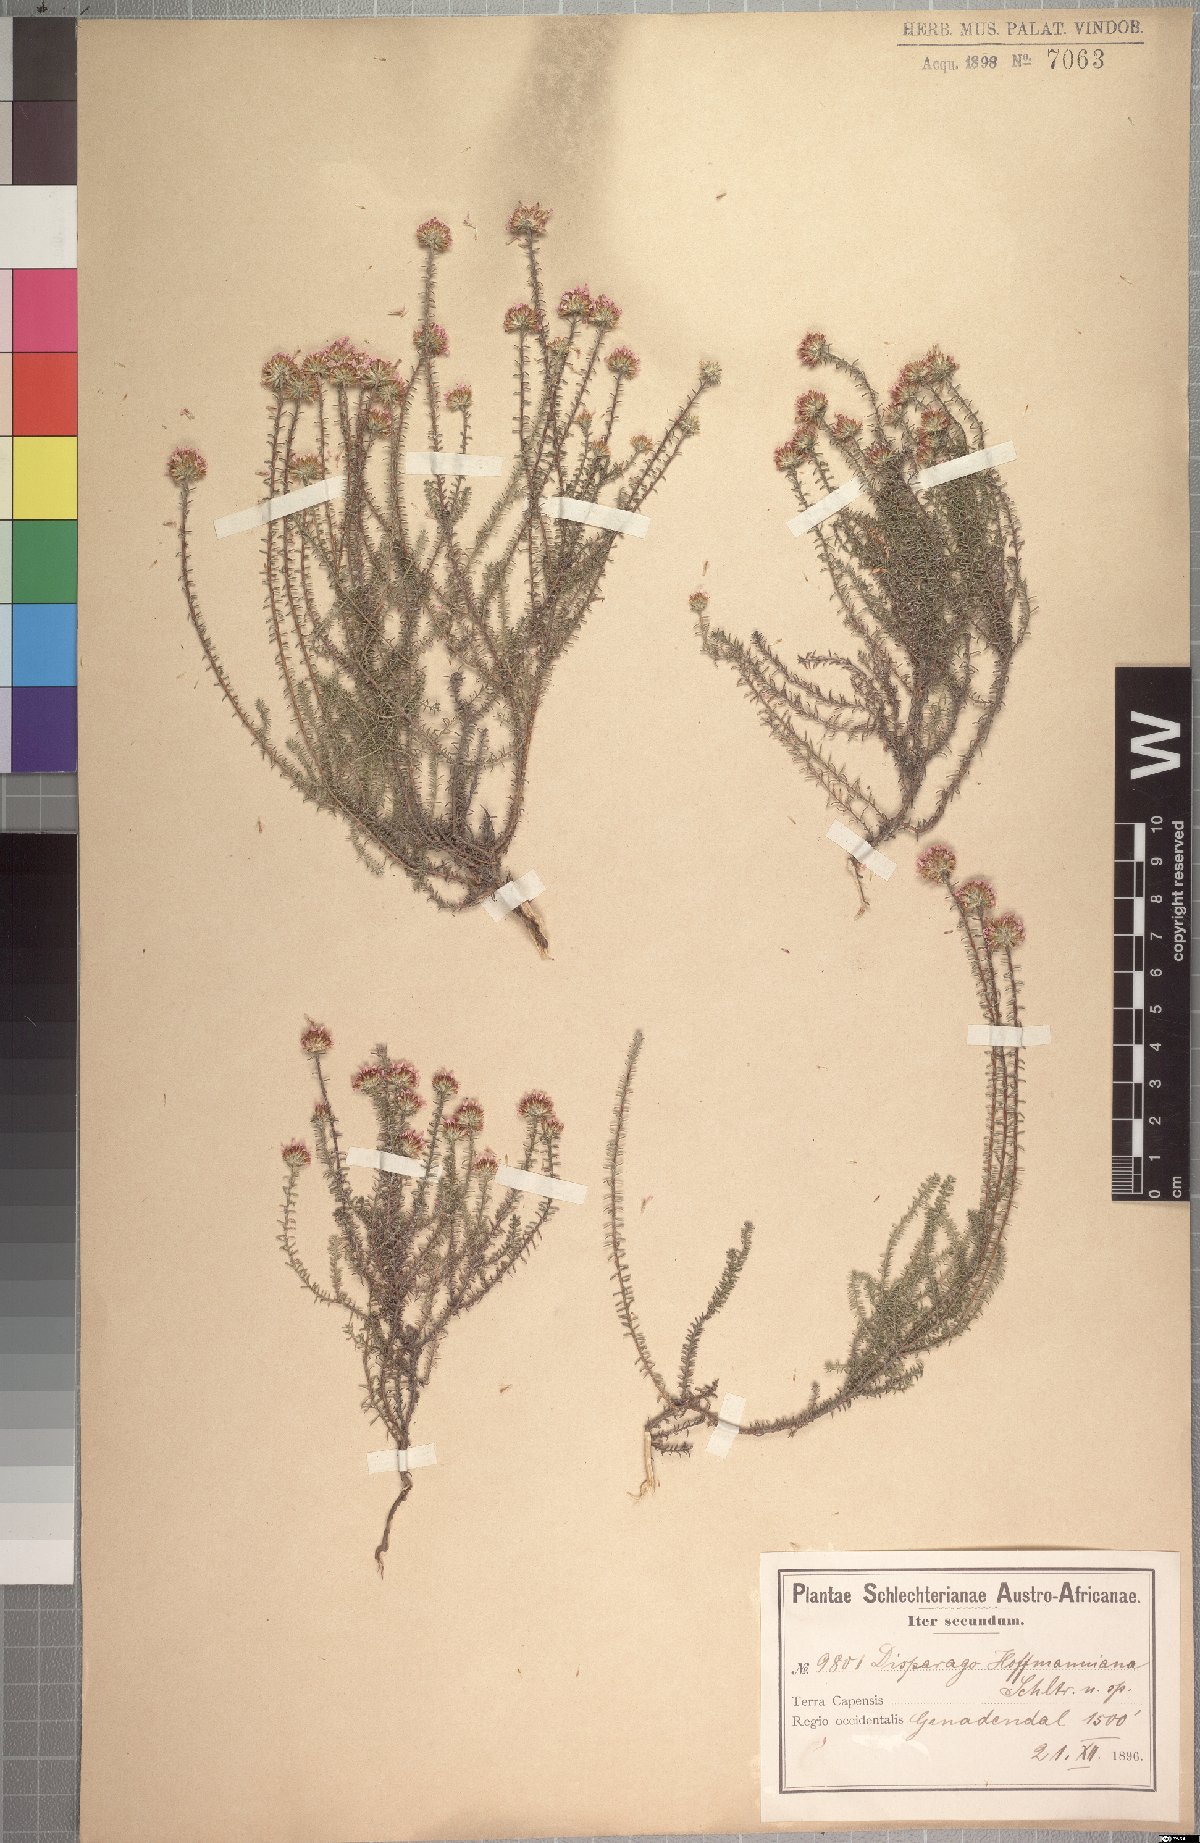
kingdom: Plantae
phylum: Tracheophyta
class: Magnoliopsida
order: Asterales
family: Asteraceae
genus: Disparago
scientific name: Disparago ericoides
